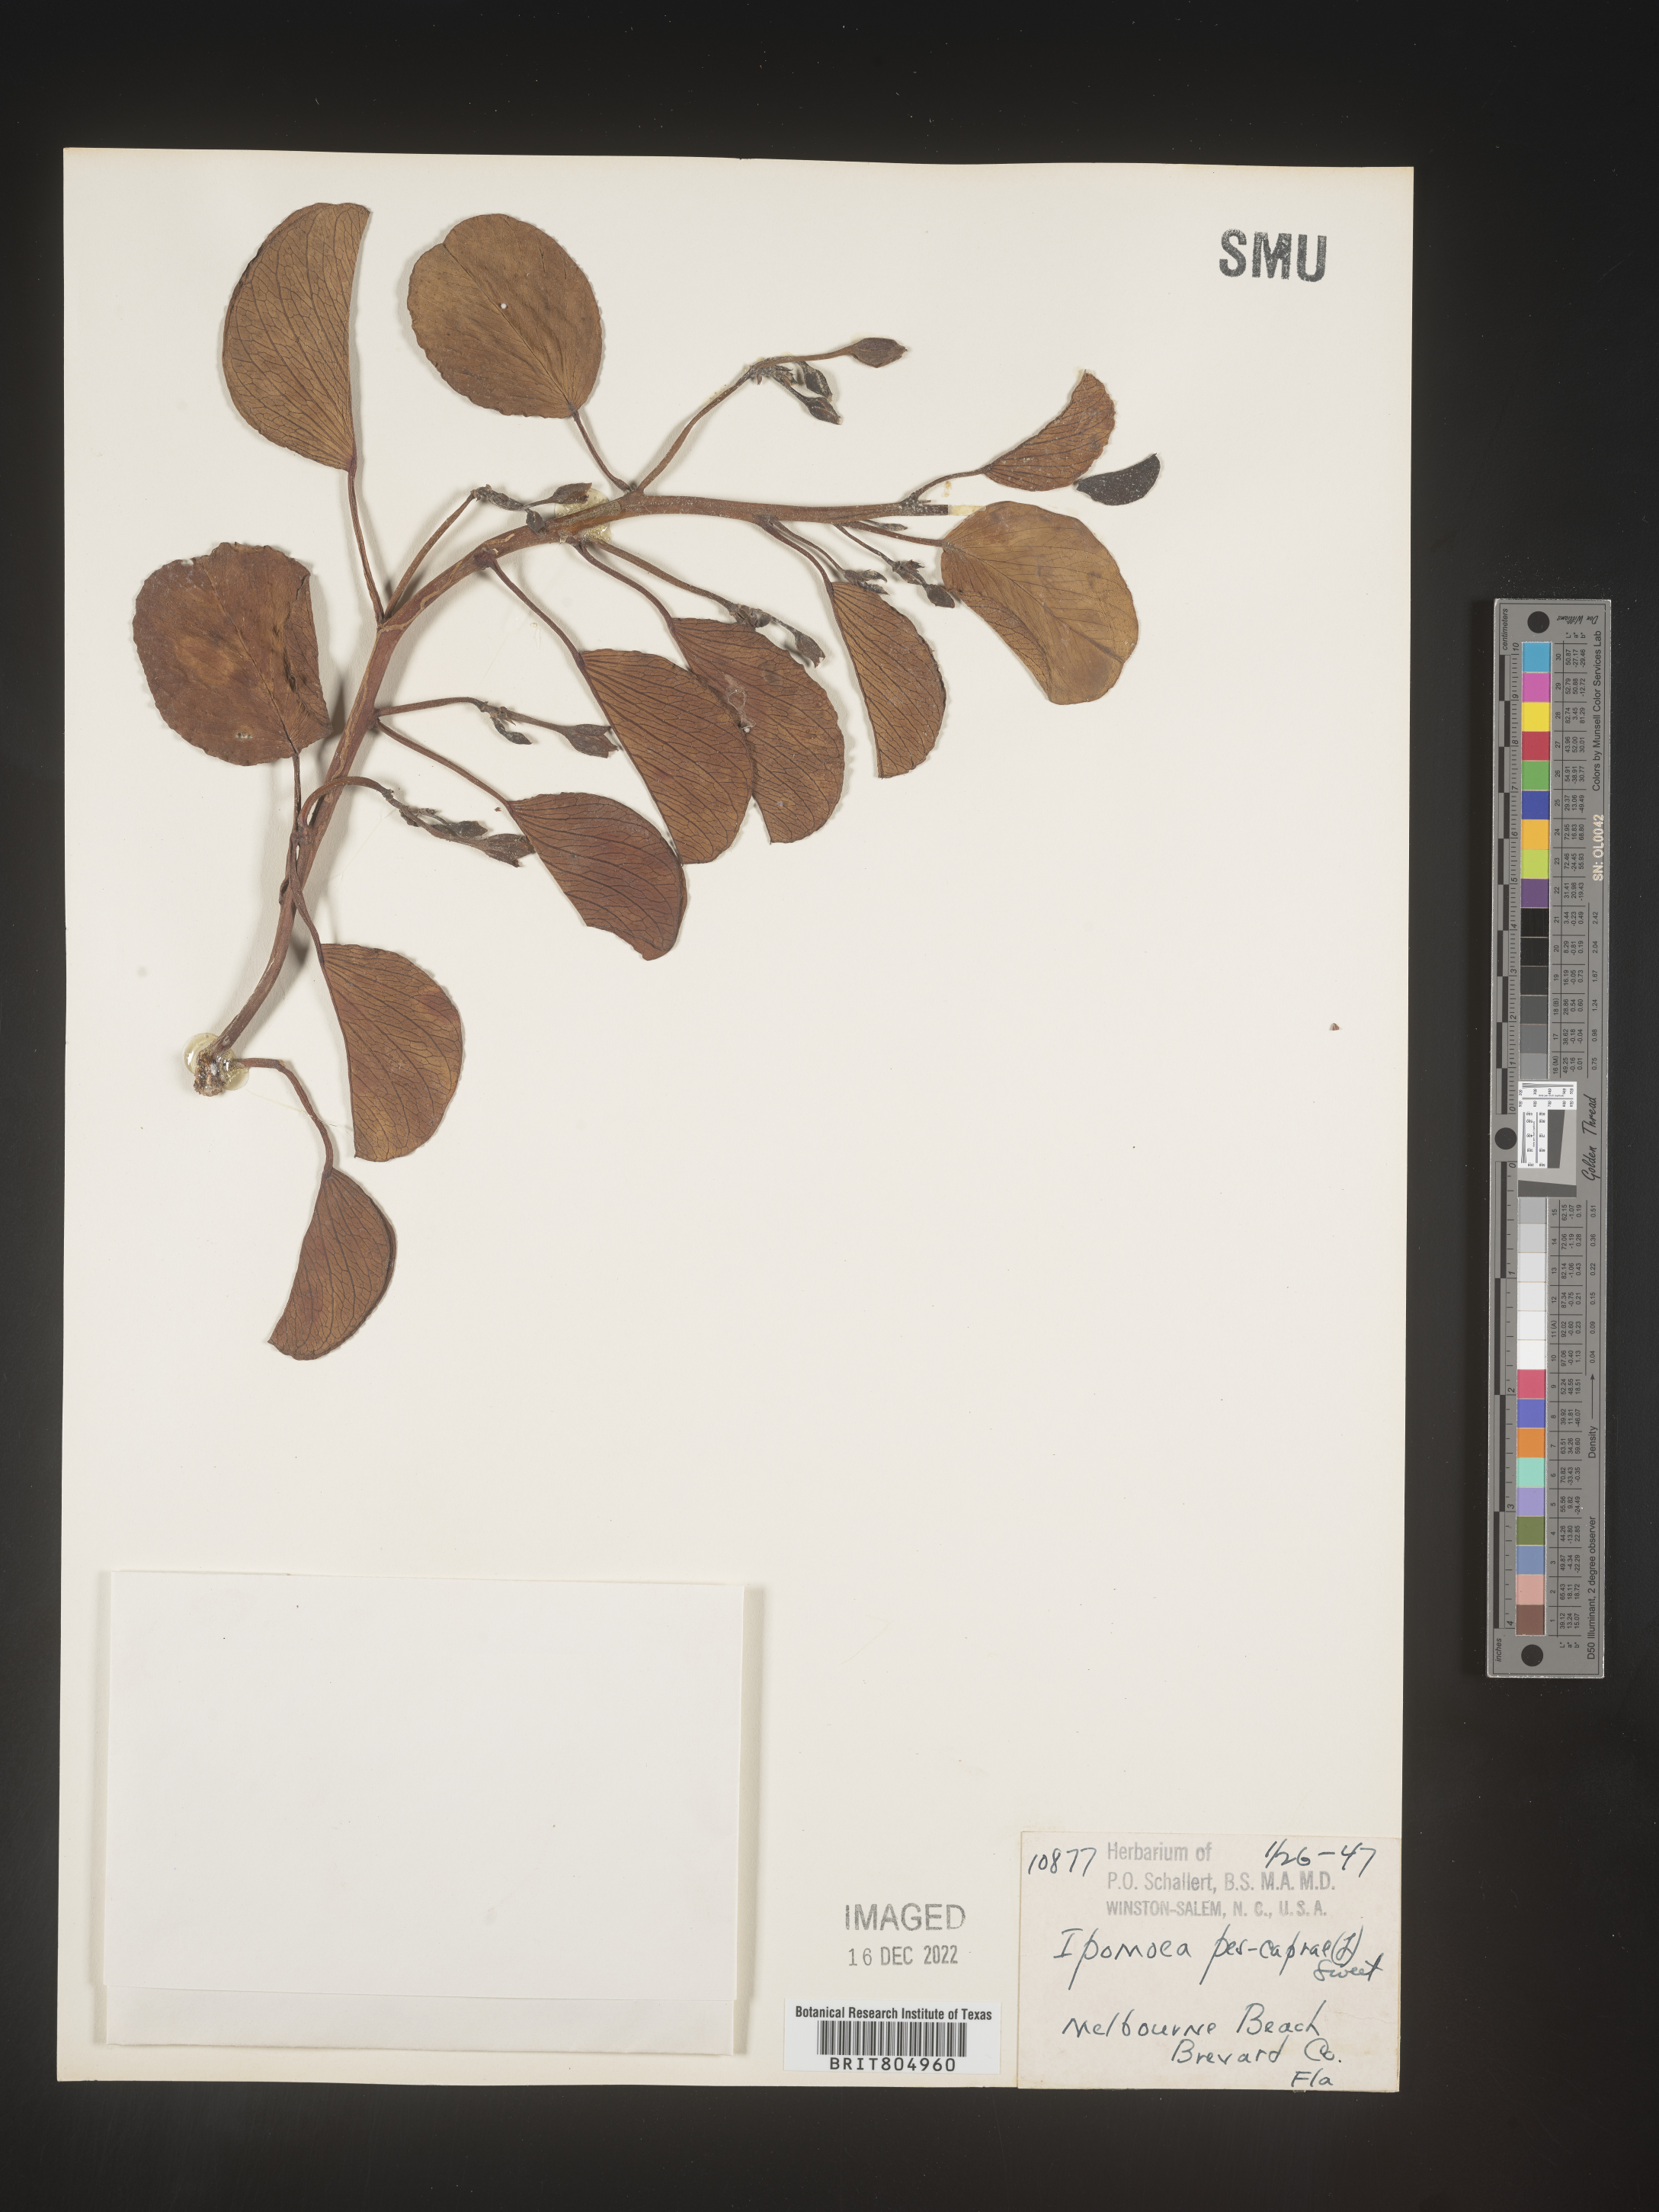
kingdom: Plantae
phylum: Tracheophyta
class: Magnoliopsida
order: Solanales
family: Convolvulaceae
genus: Ipomoea
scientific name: Ipomoea pes-caprae
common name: Beach morning glory
